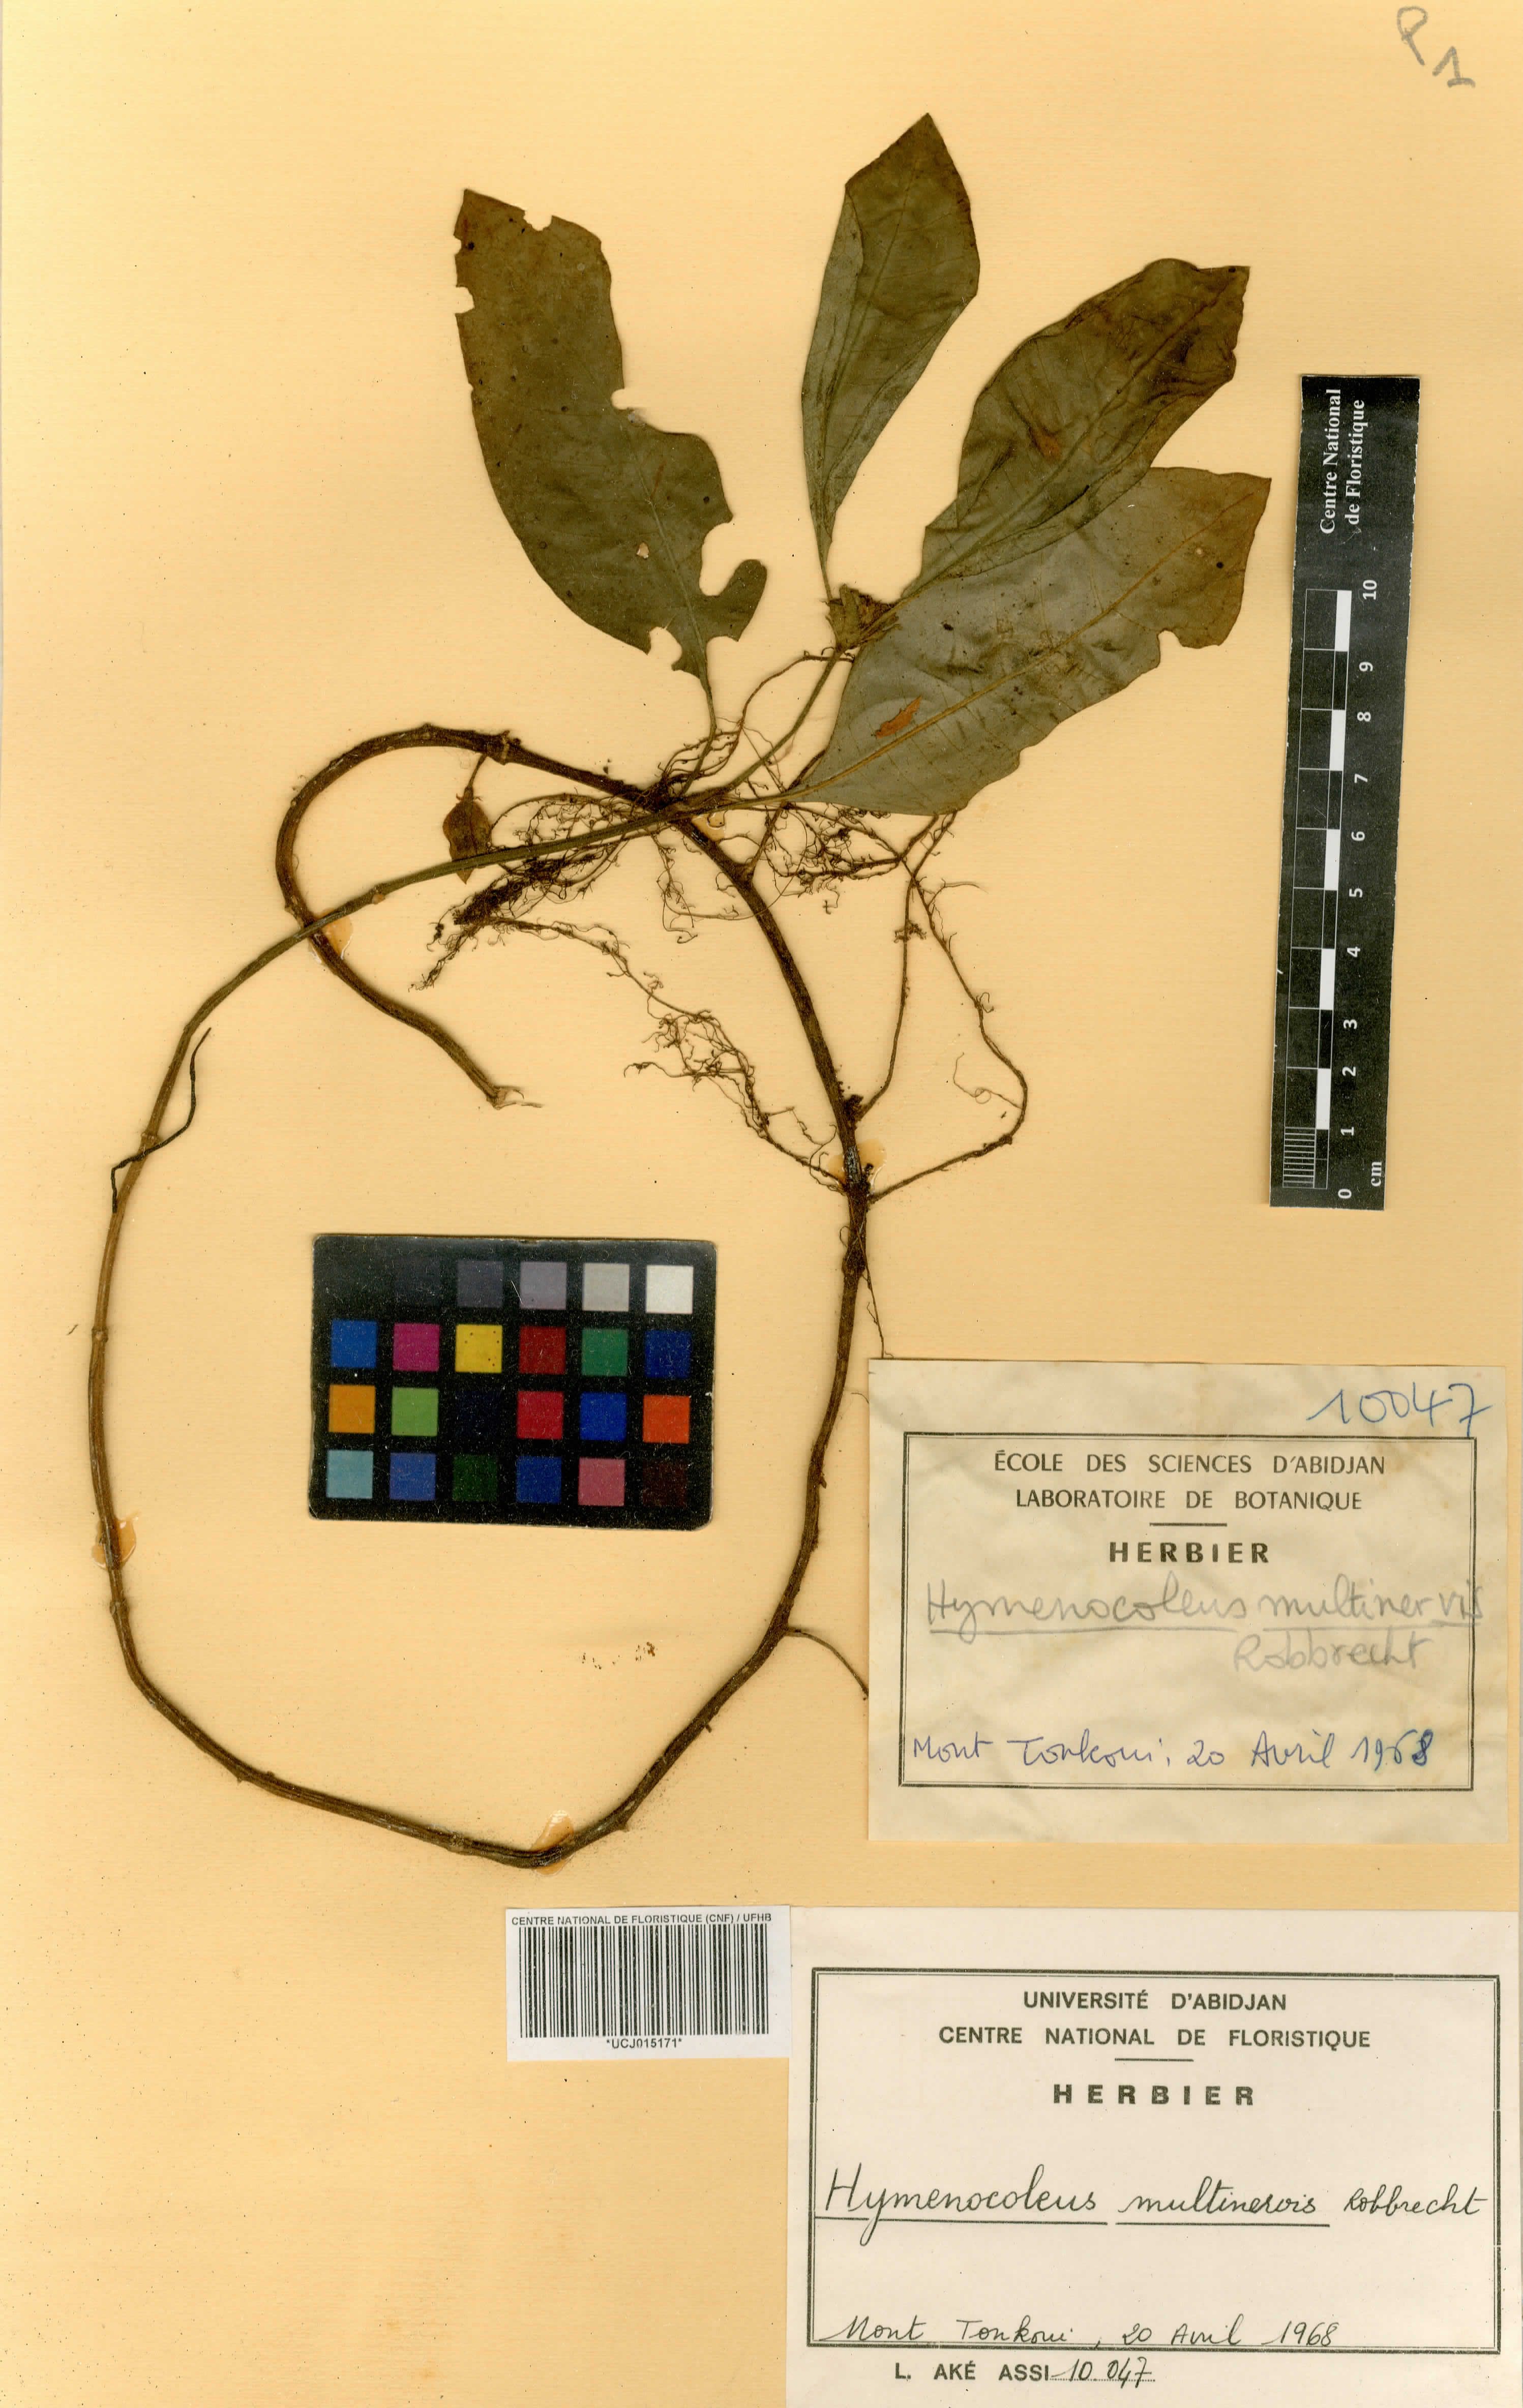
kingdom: Plantae
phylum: Tracheophyta
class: Magnoliopsida
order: Gentianales
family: Rubiaceae
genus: Hymenocoleus
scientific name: Hymenocoleus multinervis
